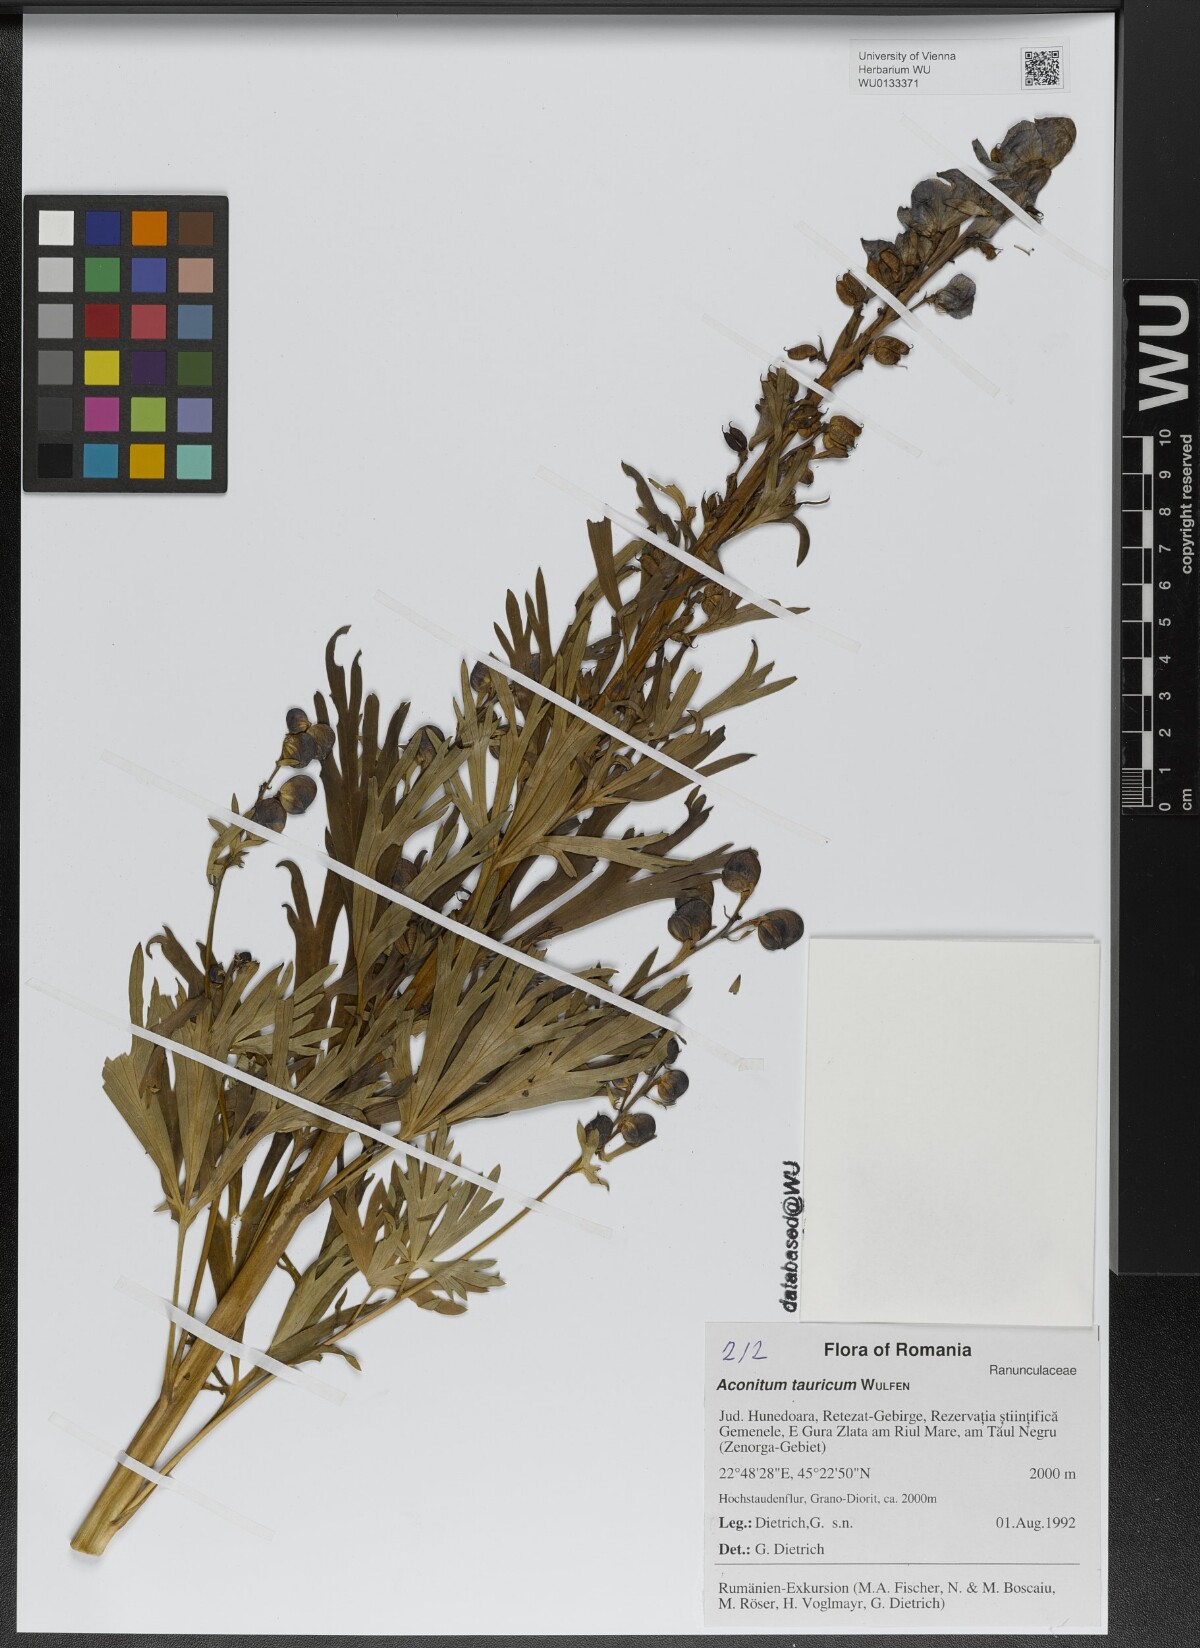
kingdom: Plantae
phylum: Tracheophyta
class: Magnoliopsida
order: Ranunculales
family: Ranunculaceae
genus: Aconitum
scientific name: Aconitum tauricum
